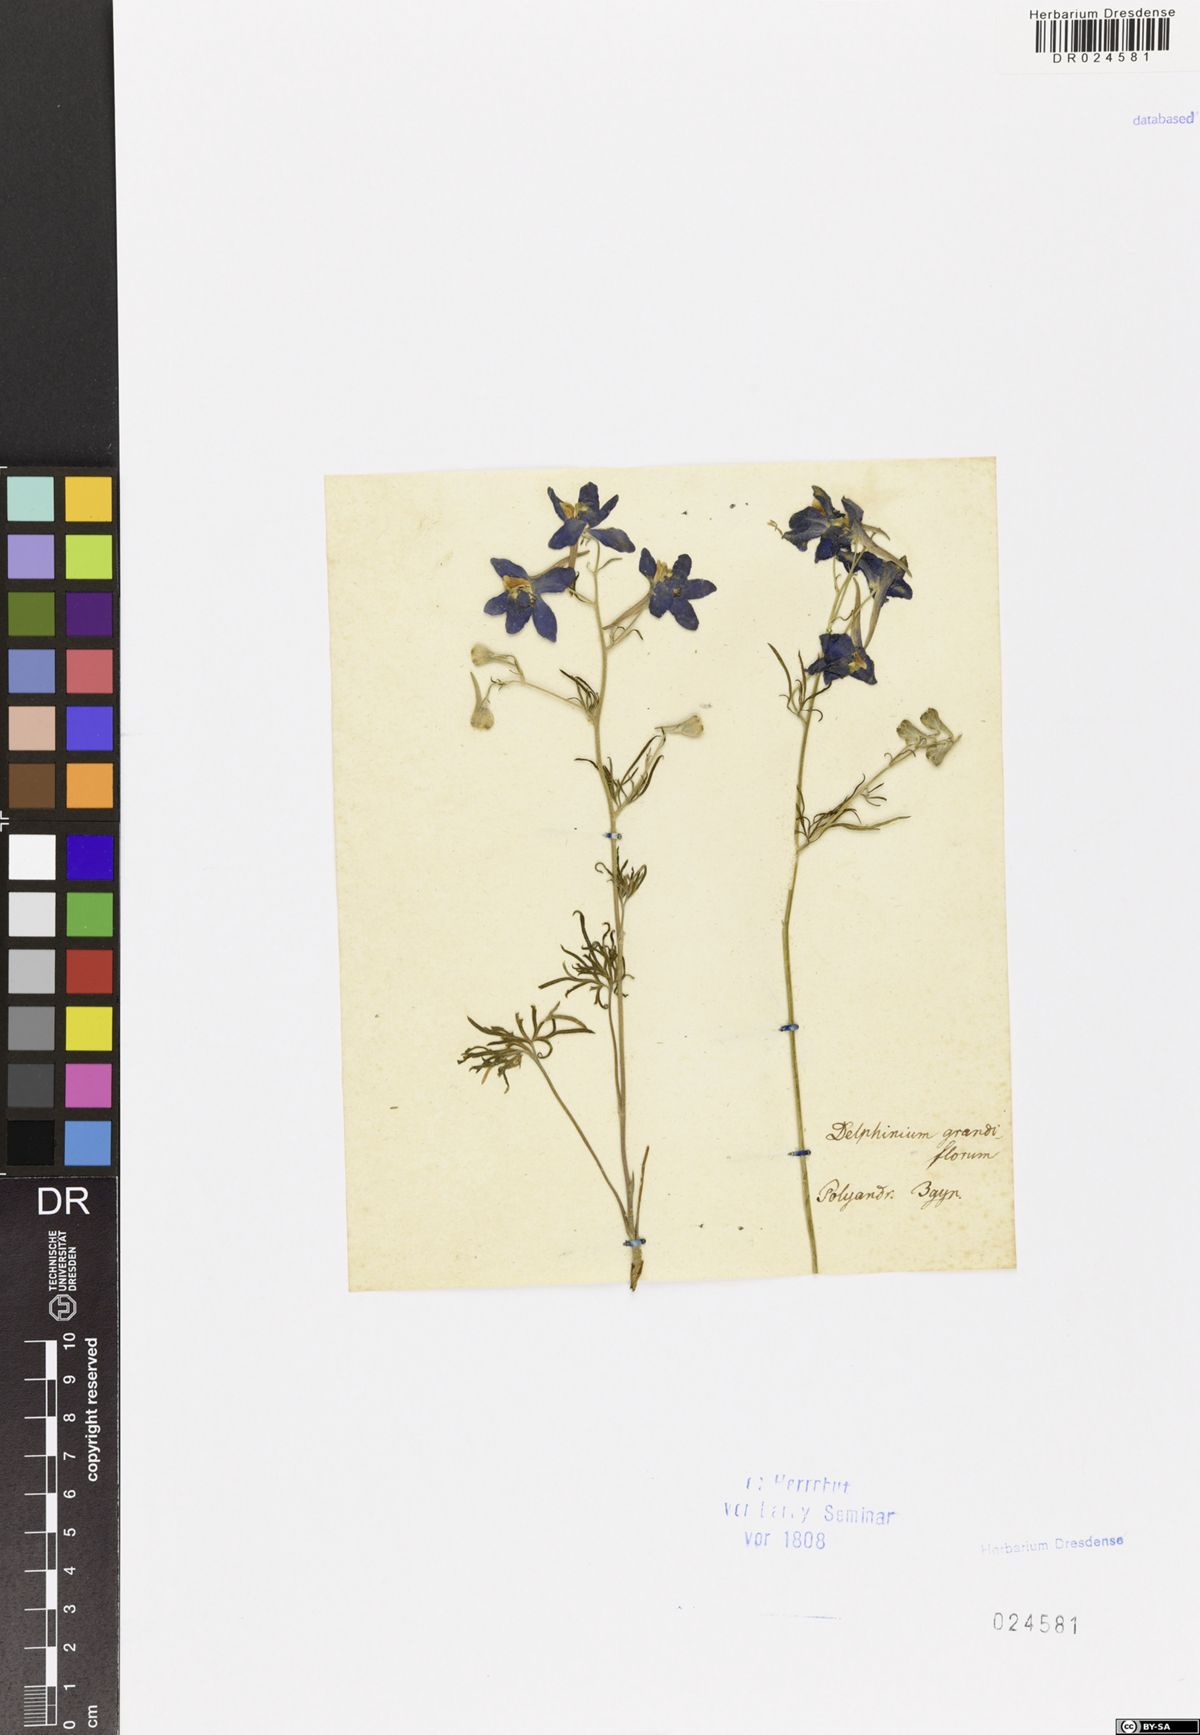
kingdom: Plantae
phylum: Tracheophyta
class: Magnoliopsida
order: Ranunculales
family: Ranunculaceae
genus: Delphinium
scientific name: Delphinium grandiflorum
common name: Siberian larkspur
